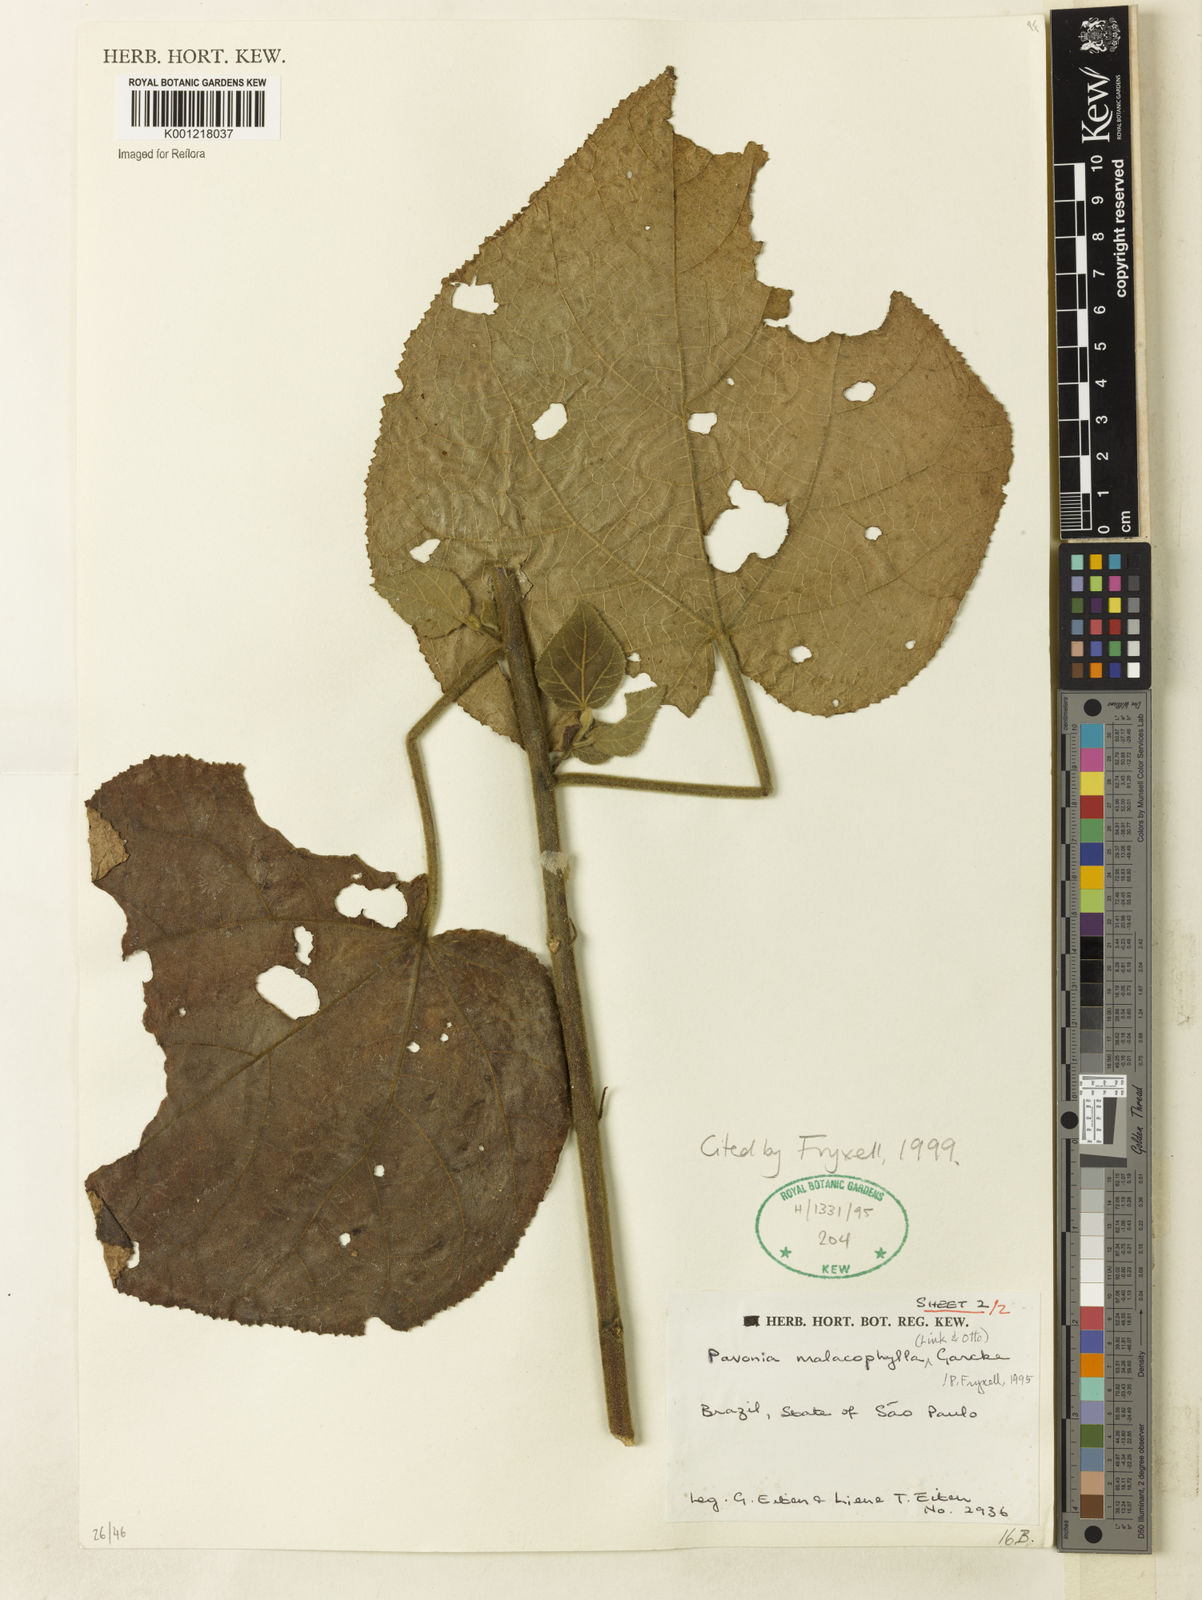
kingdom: Plantae
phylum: Tracheophyta
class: Magnoliopsida
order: Malvales
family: Malvaceae
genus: Pavonia
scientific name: Pavonia malacophylla
